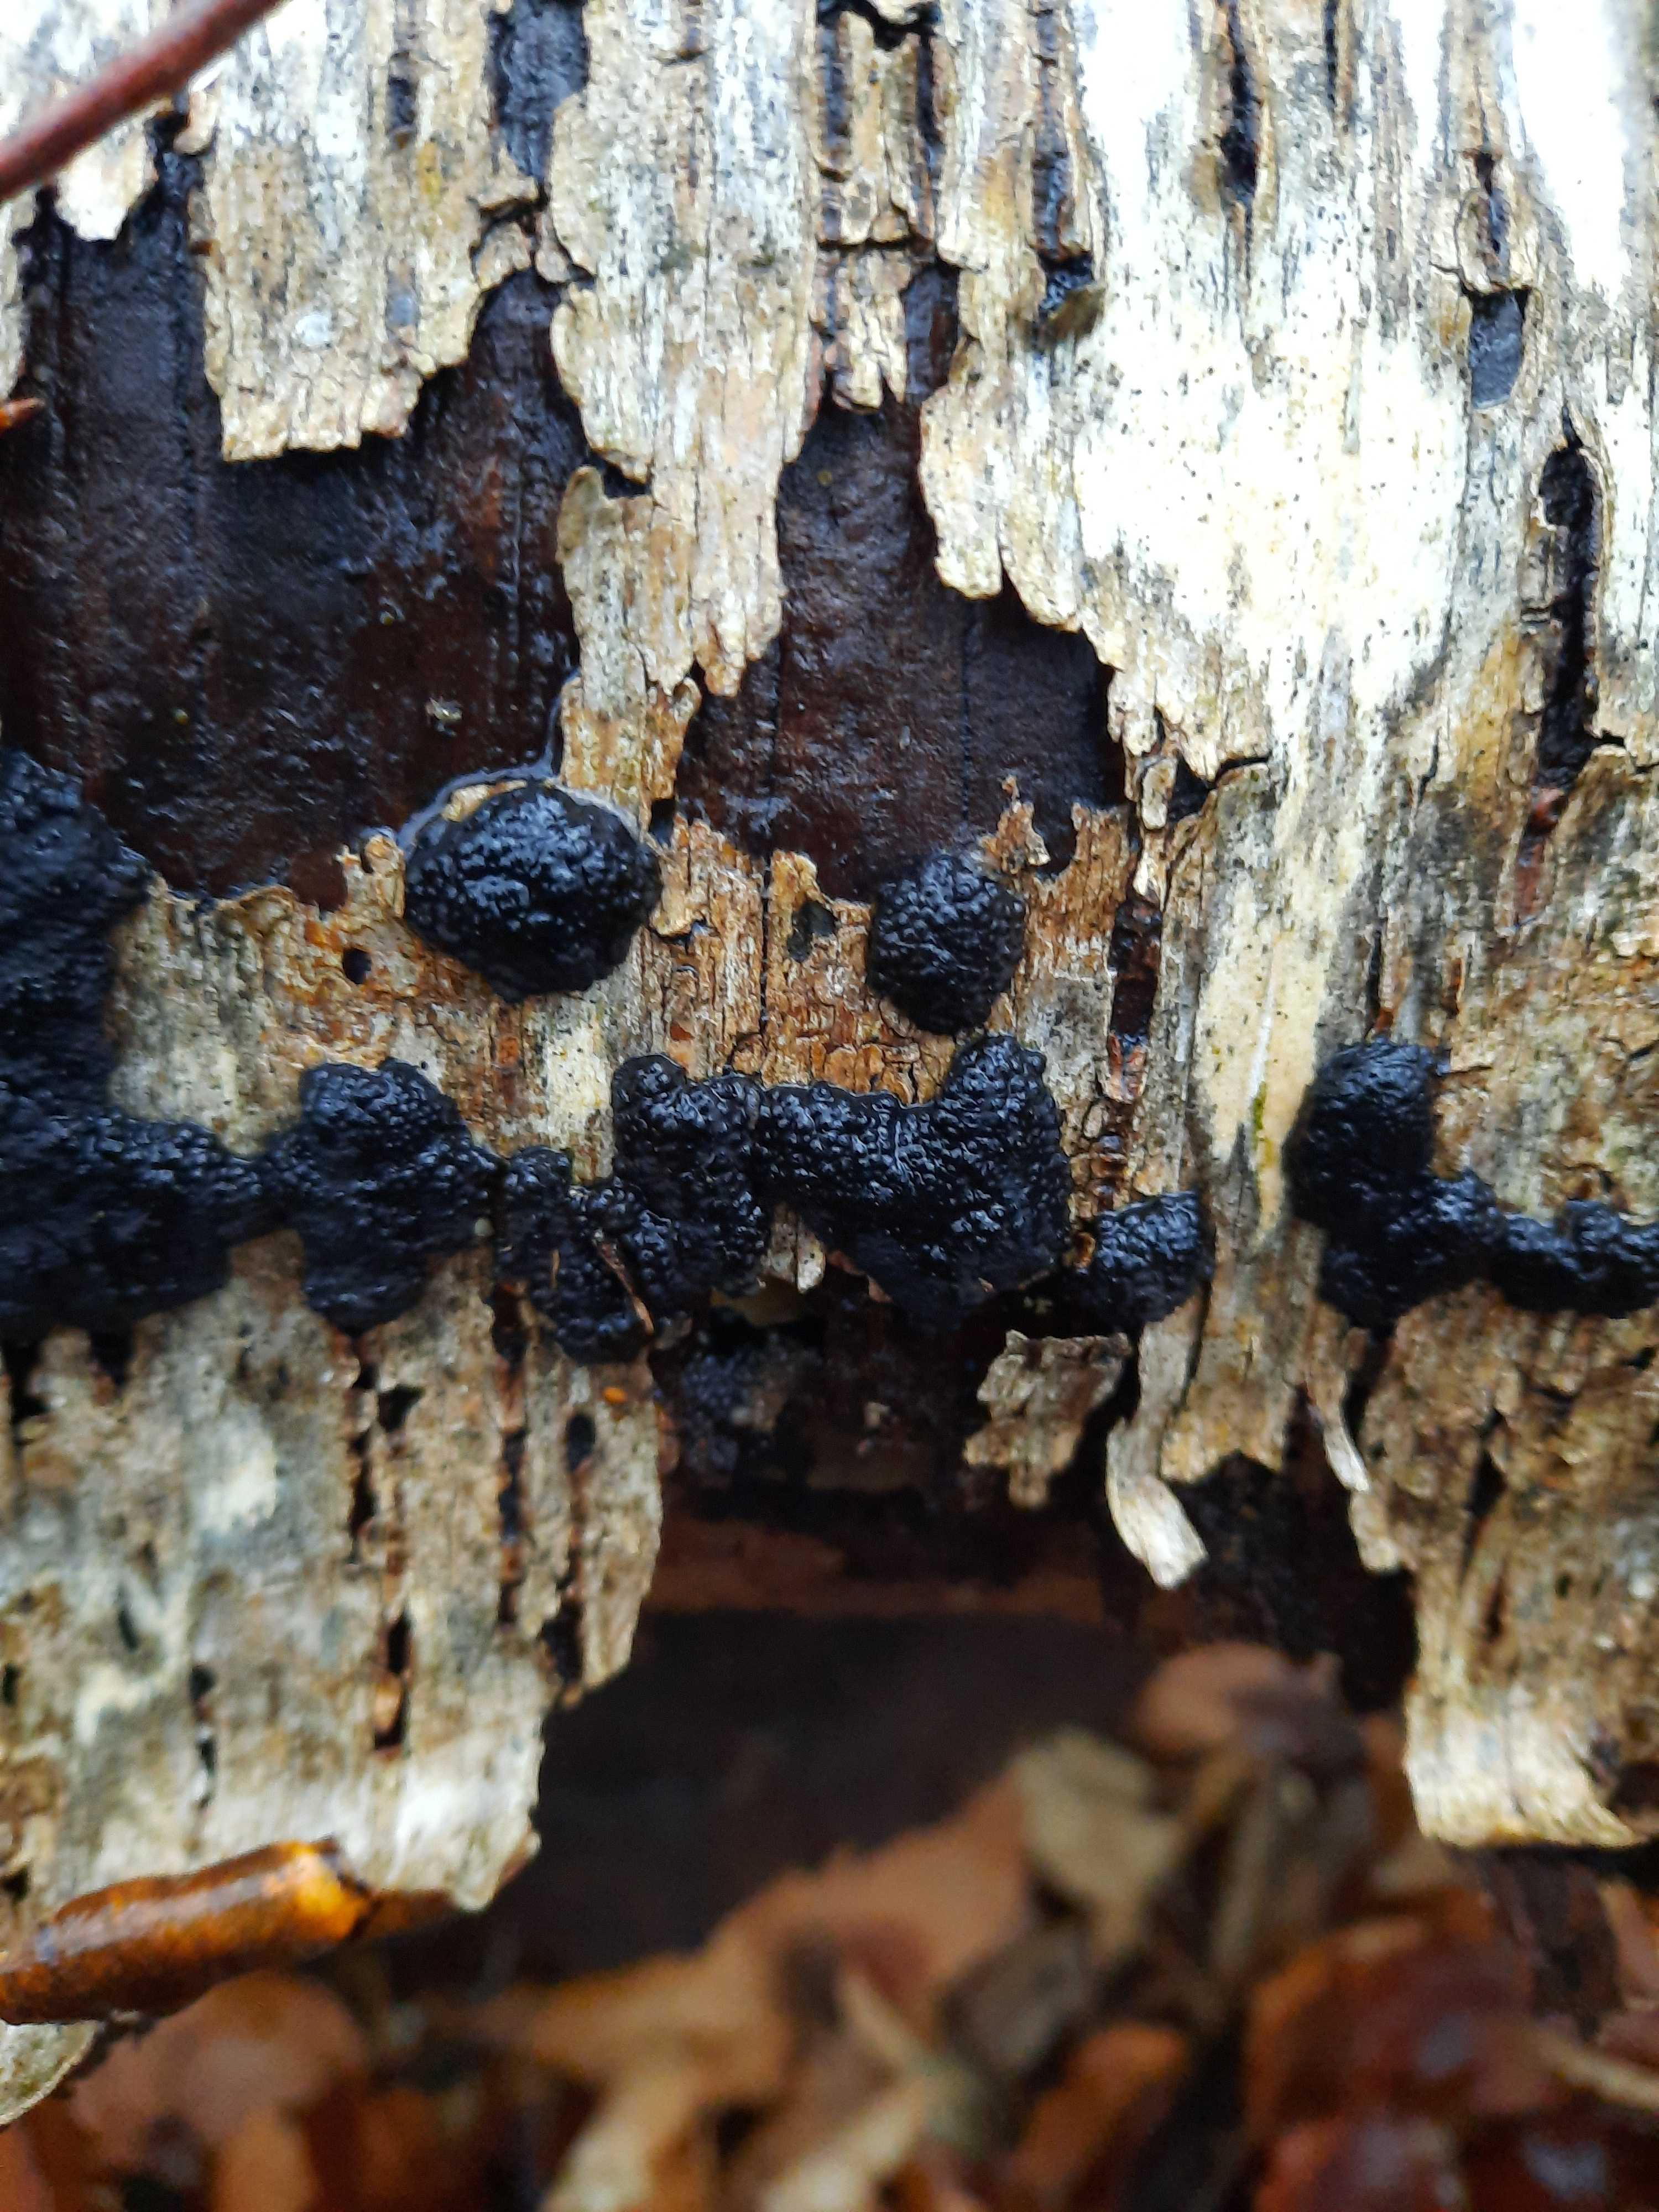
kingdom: Fungi
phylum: Ascomycota
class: Sordariomycetes
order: Xylariales
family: Hypoxylaceae
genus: Jackrogersella
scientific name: Jackrogersella multiformis
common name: foranderlig kulbær
